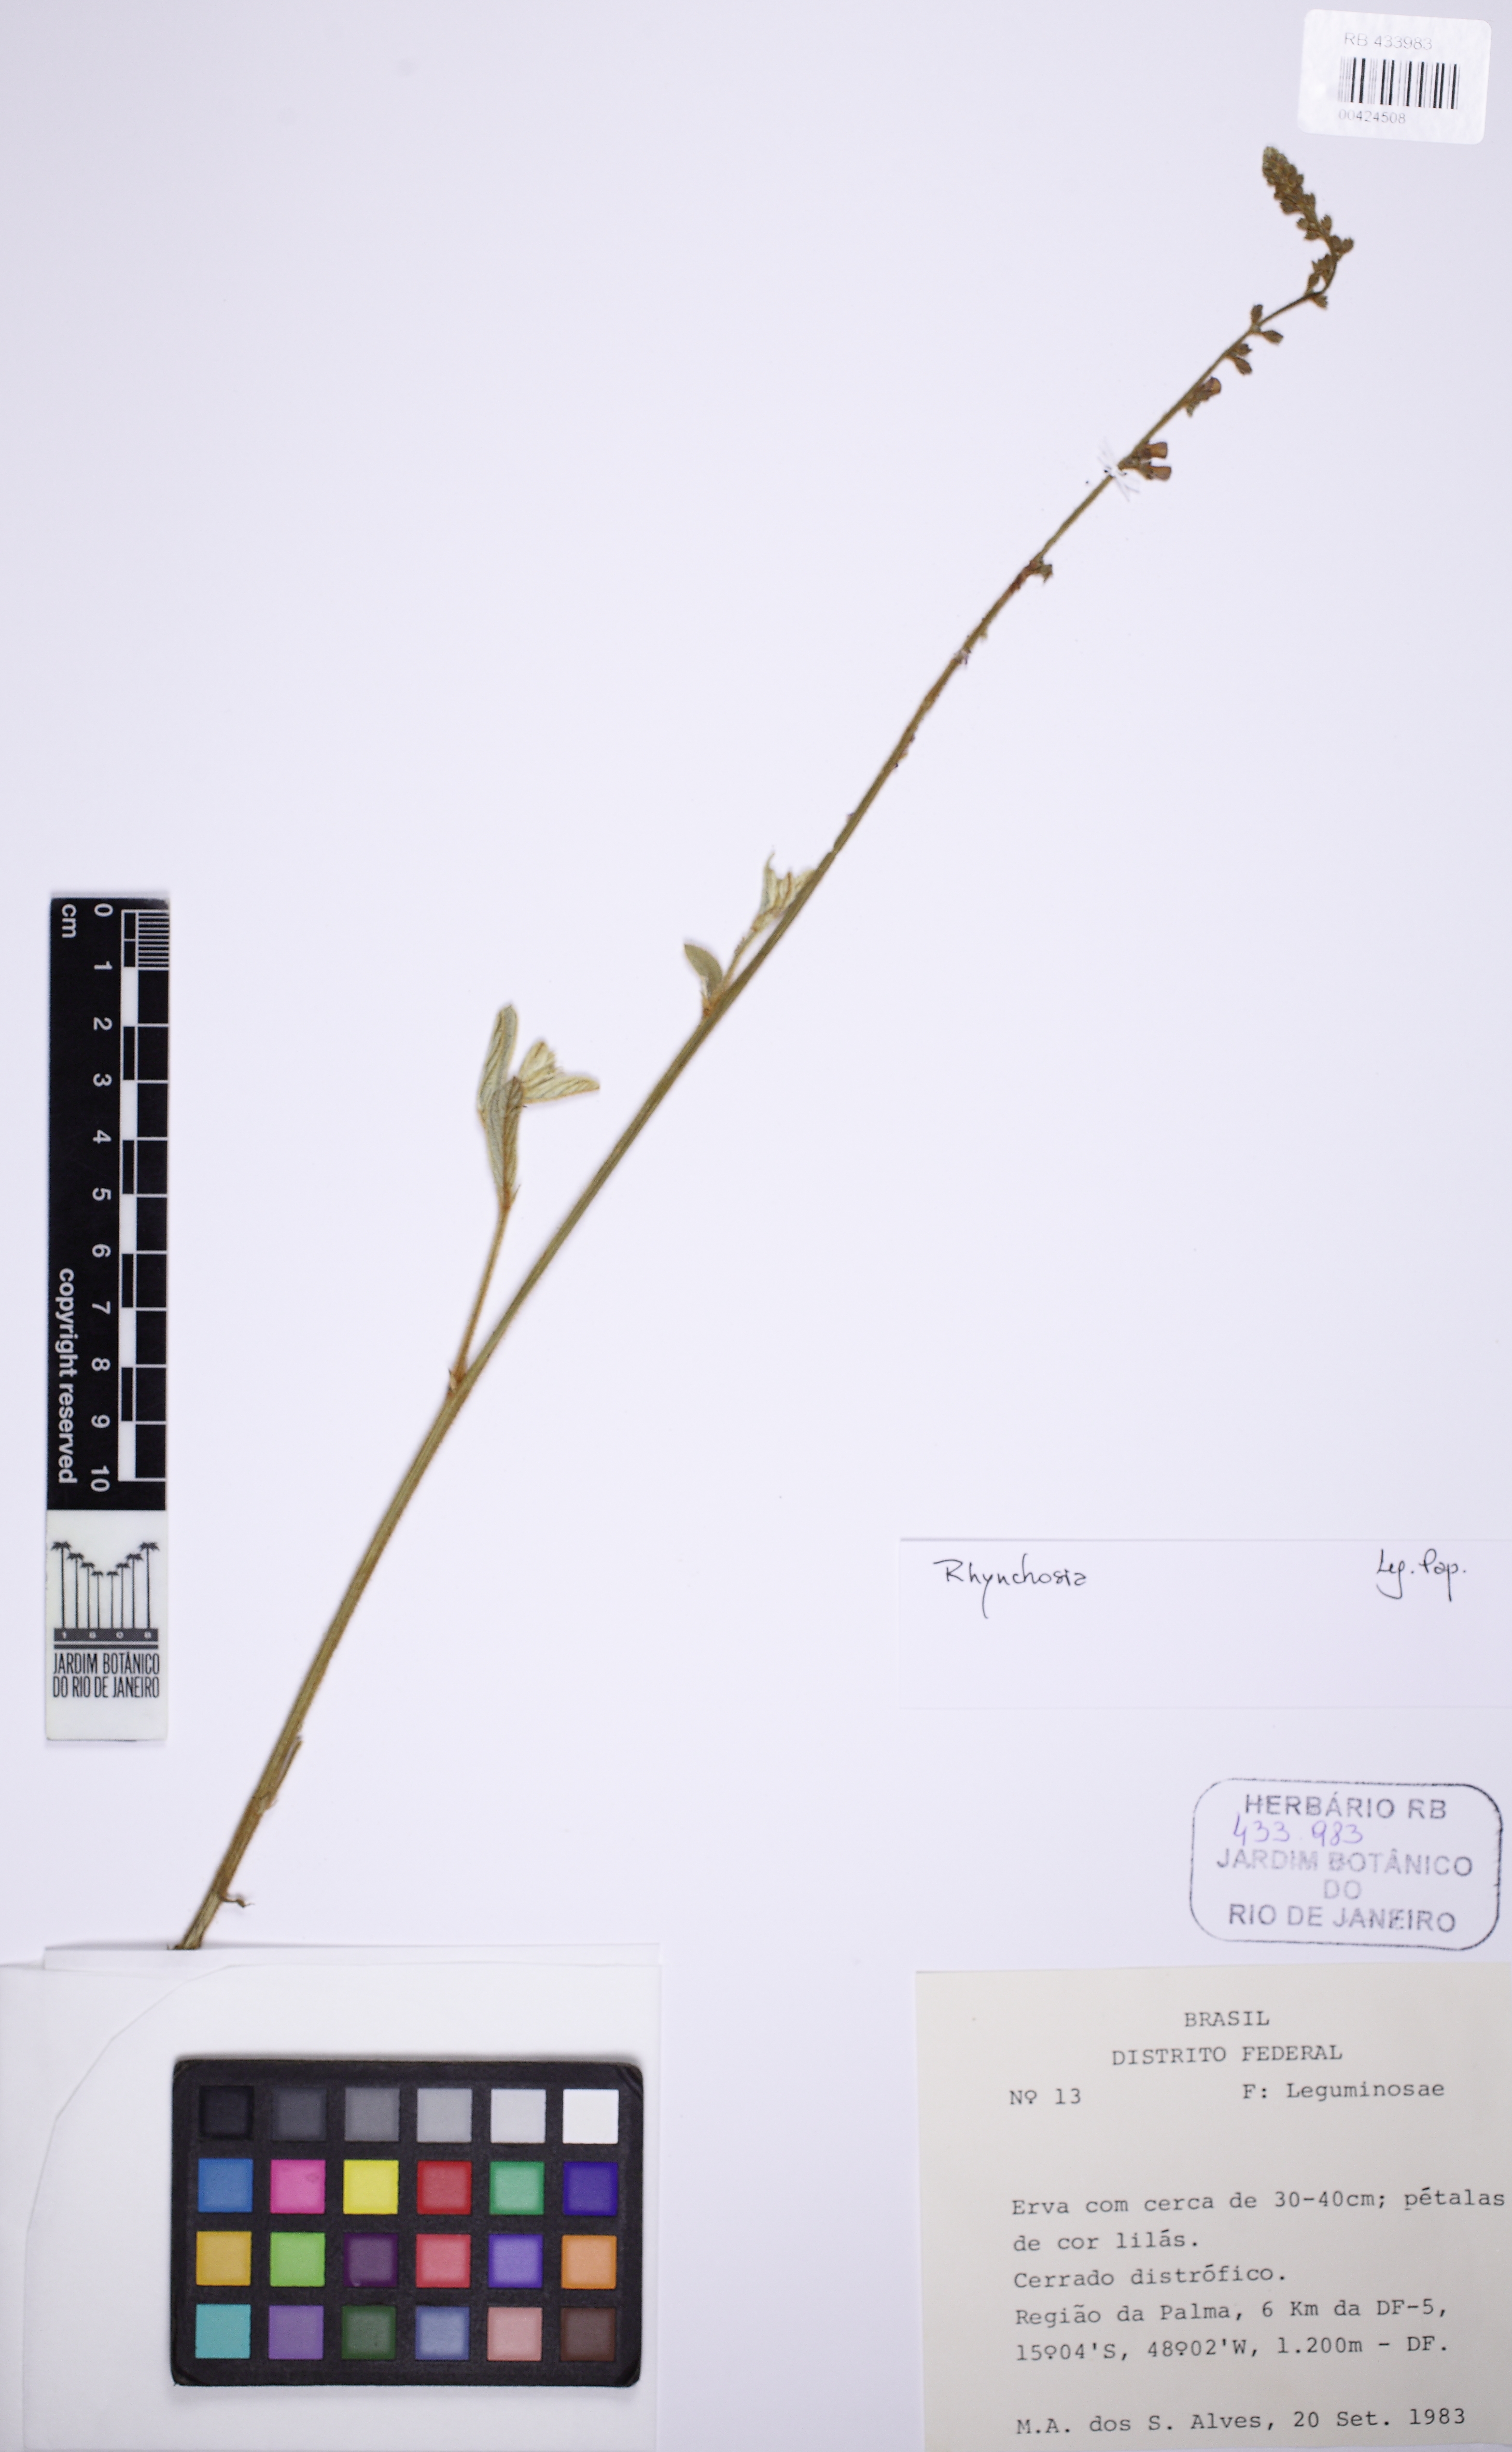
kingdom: Plantae
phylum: Tracheophyta
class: Magnoliopsida
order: Fabales
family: Fabaceae
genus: Eriosema
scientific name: Eriosema
